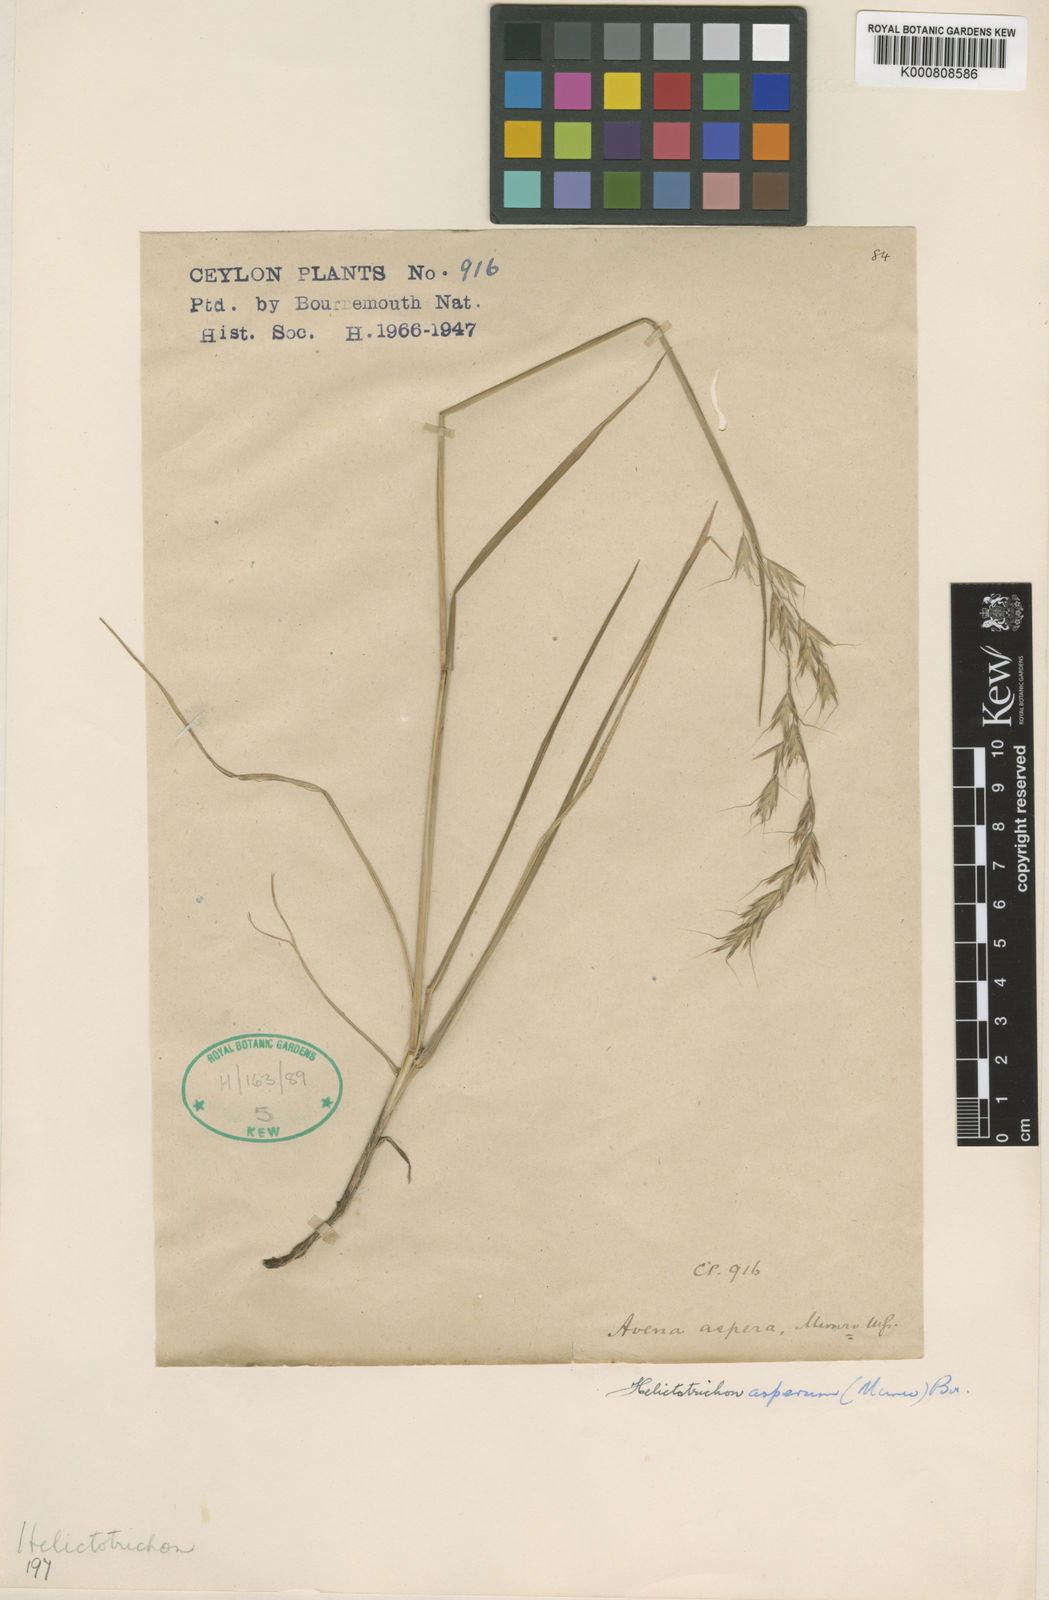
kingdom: Plantae
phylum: Tracheophyta
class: Liliopsida
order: Poales
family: Poaceae
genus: Trisetopsis
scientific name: Trisetopsis virescens
